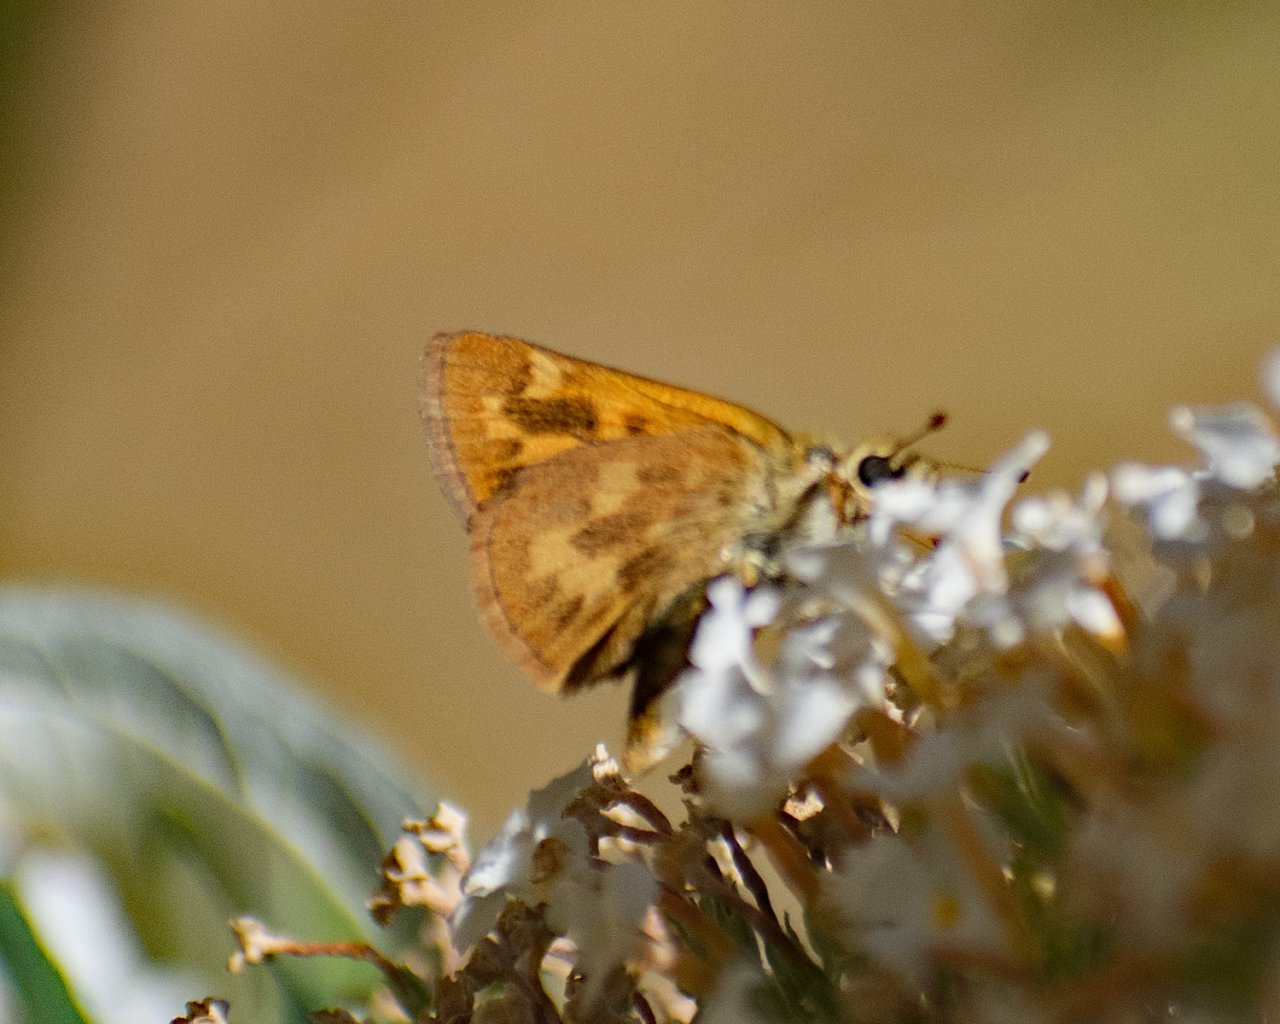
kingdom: Animalia
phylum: Arthropoda
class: Insecta
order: Lepidoptera
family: Hesperiidae
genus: Ochlodes
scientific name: Ochlodes sylvanoides
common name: Woodland Skipper
